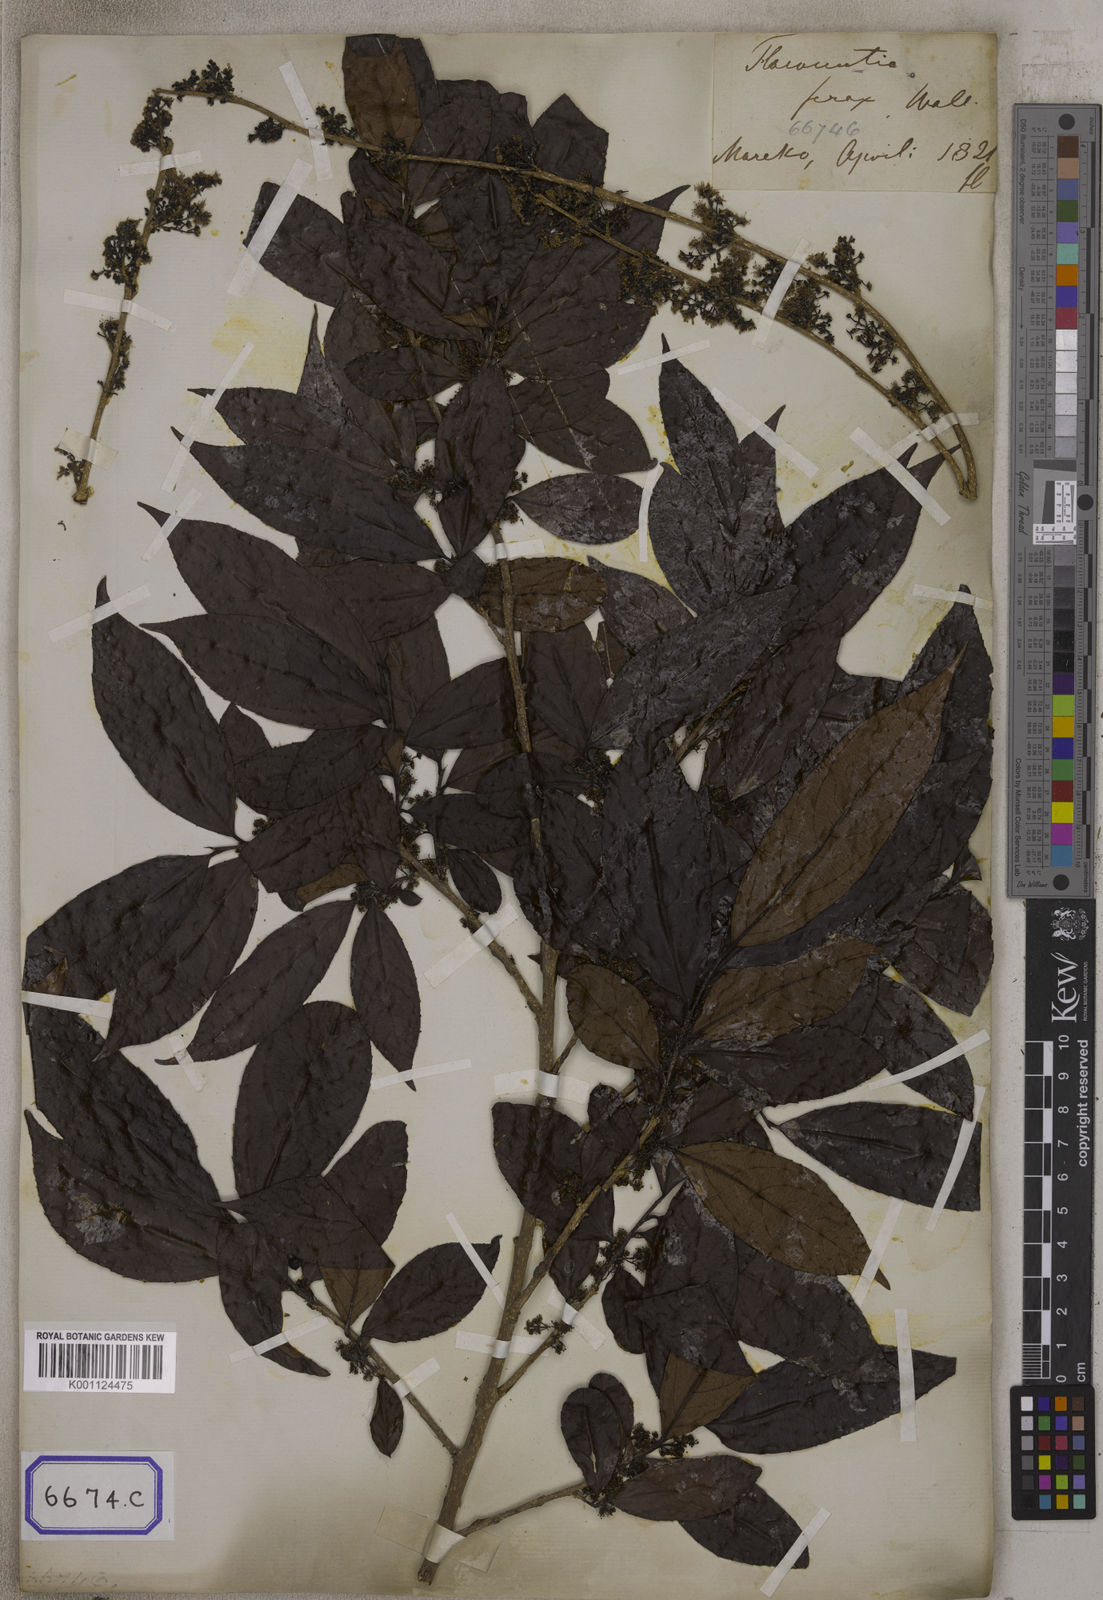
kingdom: Plantae
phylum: Tracheophyta
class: Magnoliopsida
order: Malpighiales
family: Salicaceae
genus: Flacourtia
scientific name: Flacourtia
